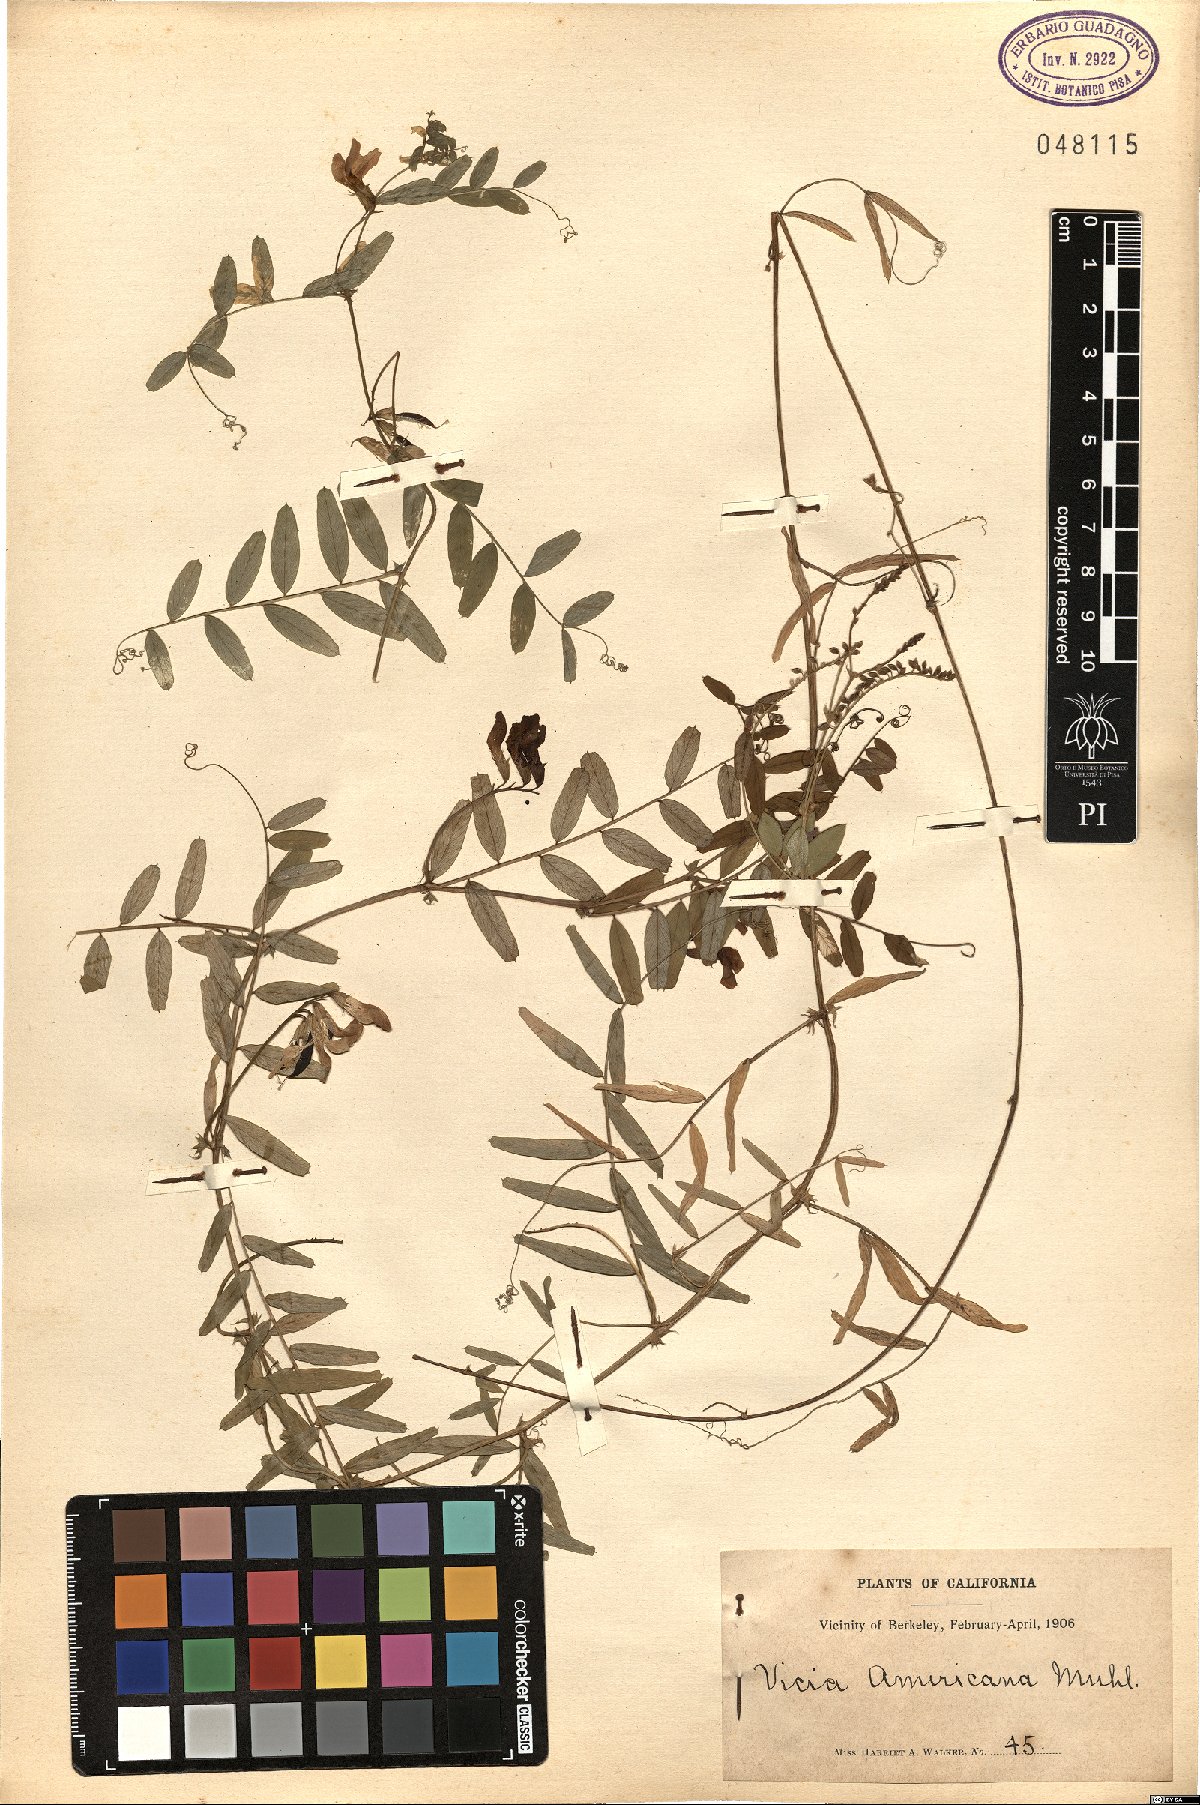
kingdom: Plantae
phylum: Tracheophyta
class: Magnoliopsida
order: Fabales
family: Fabaceae
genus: Vicia
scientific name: Vicia americana
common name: American vetch
